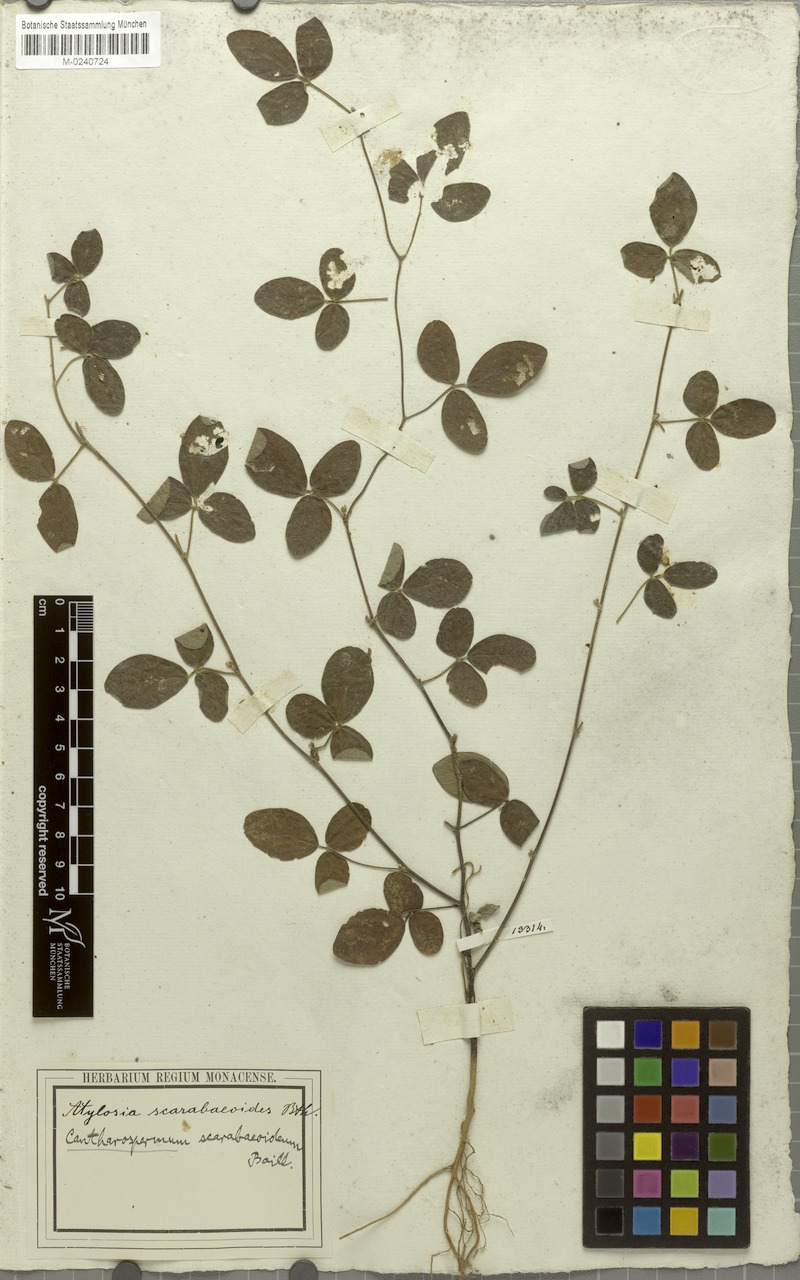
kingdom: Plantae
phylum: Tracheophyta
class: Magnoliopsida
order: Fabales
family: Fabaceae
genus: Cajanus
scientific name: Cajanus scarabaeoides
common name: Showy pigeonpea
